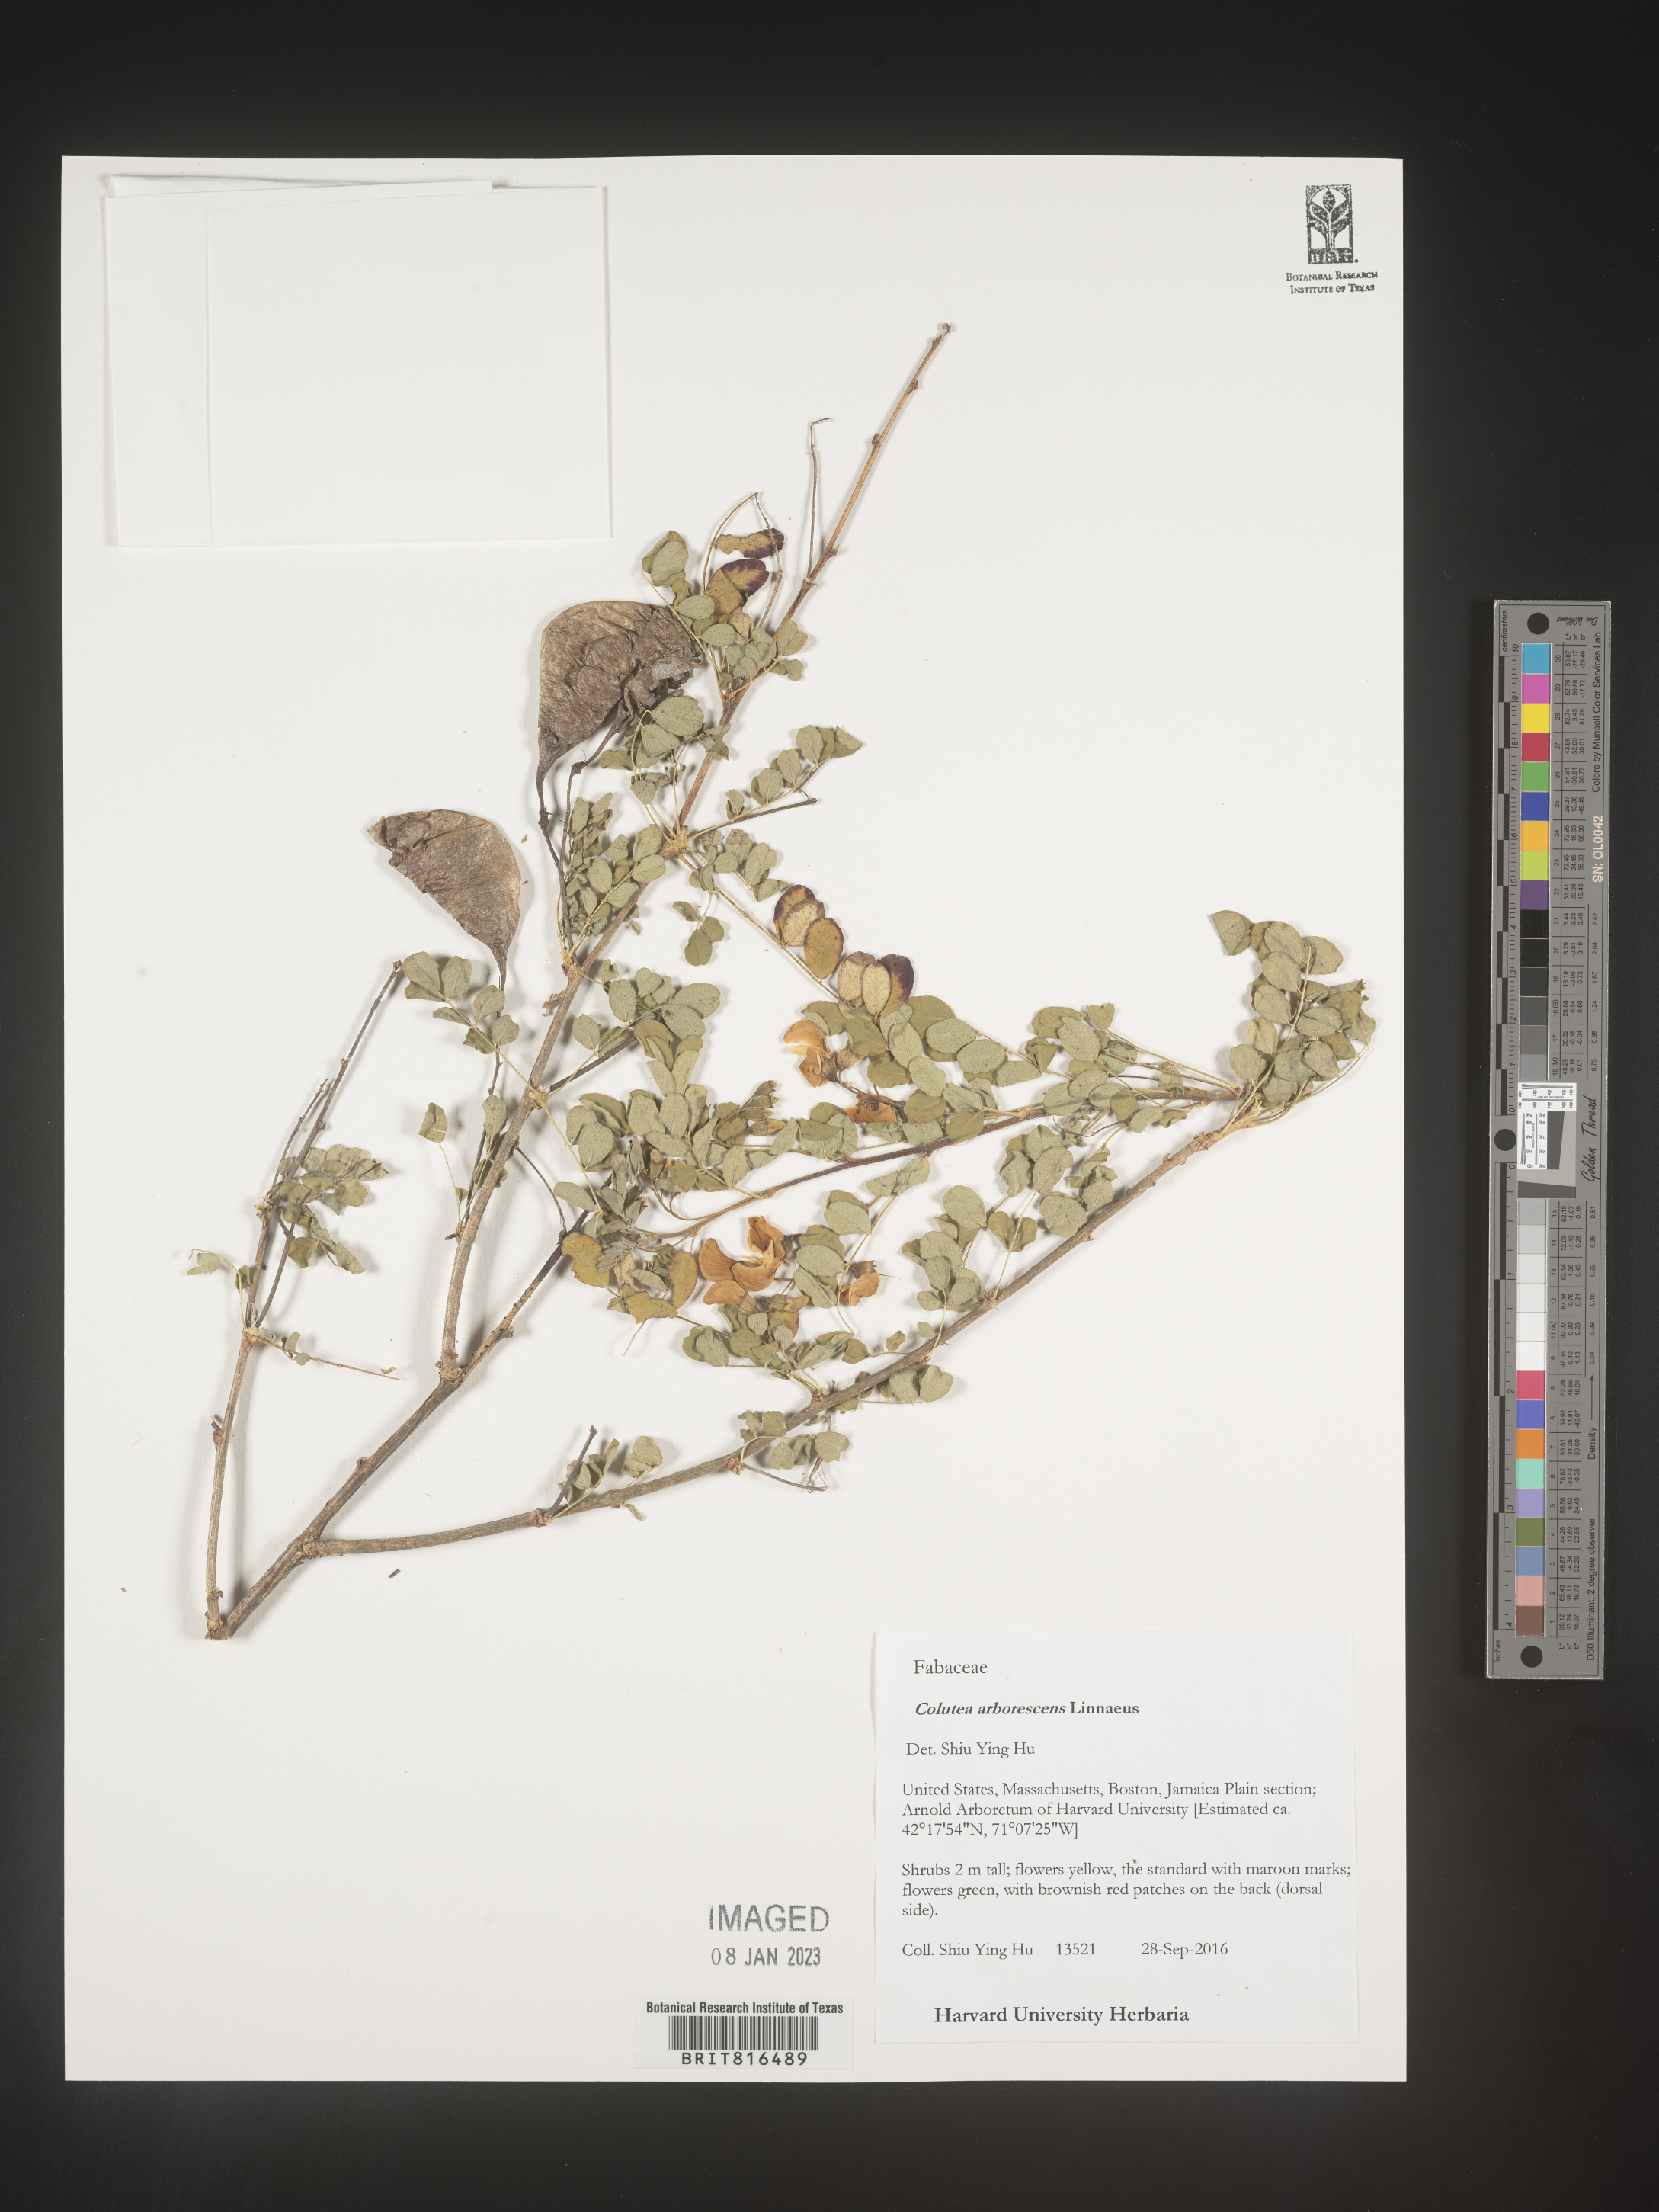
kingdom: Plantae
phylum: Tracheophyta
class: Magnoliopsida
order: Fabales
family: Fabaceae
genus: Colutea
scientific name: Colutea
